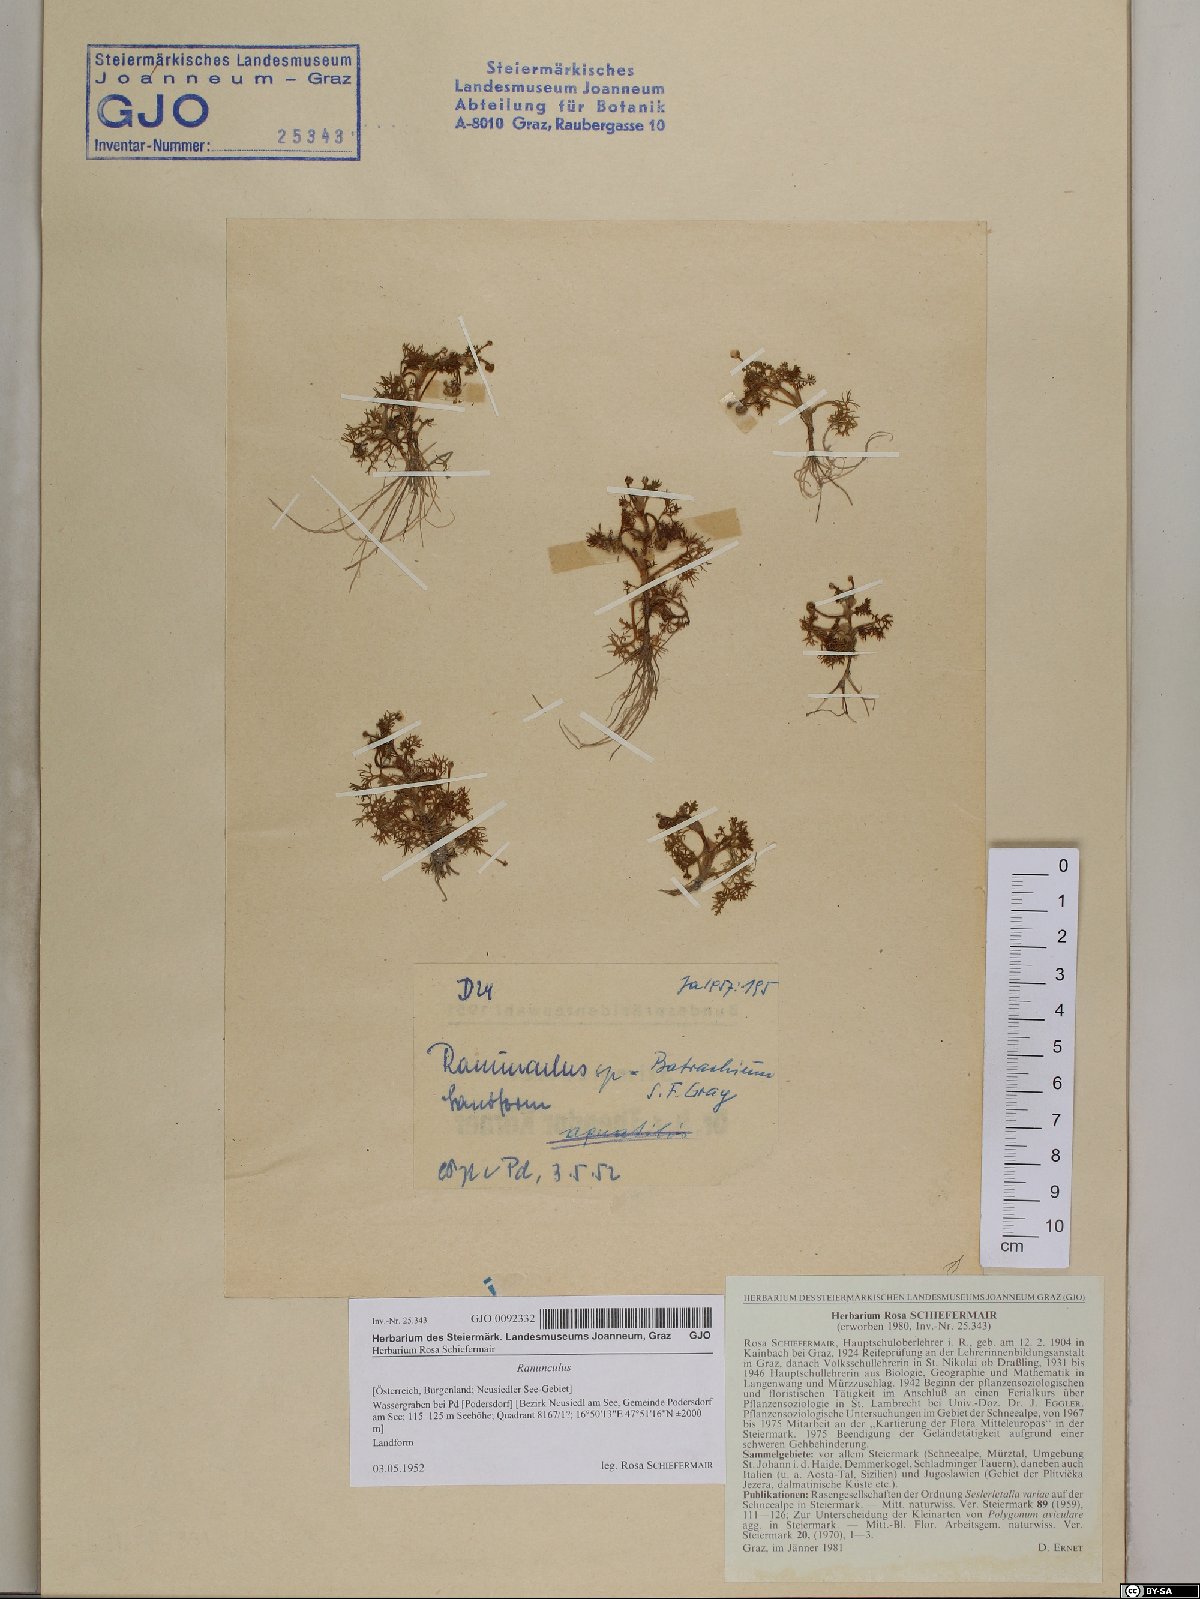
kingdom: Plantae
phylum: Tracheophyta
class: Magnoliopsida
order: Ranunculales
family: Ranunculaceae
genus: Ranunculus
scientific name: Ranunculus
